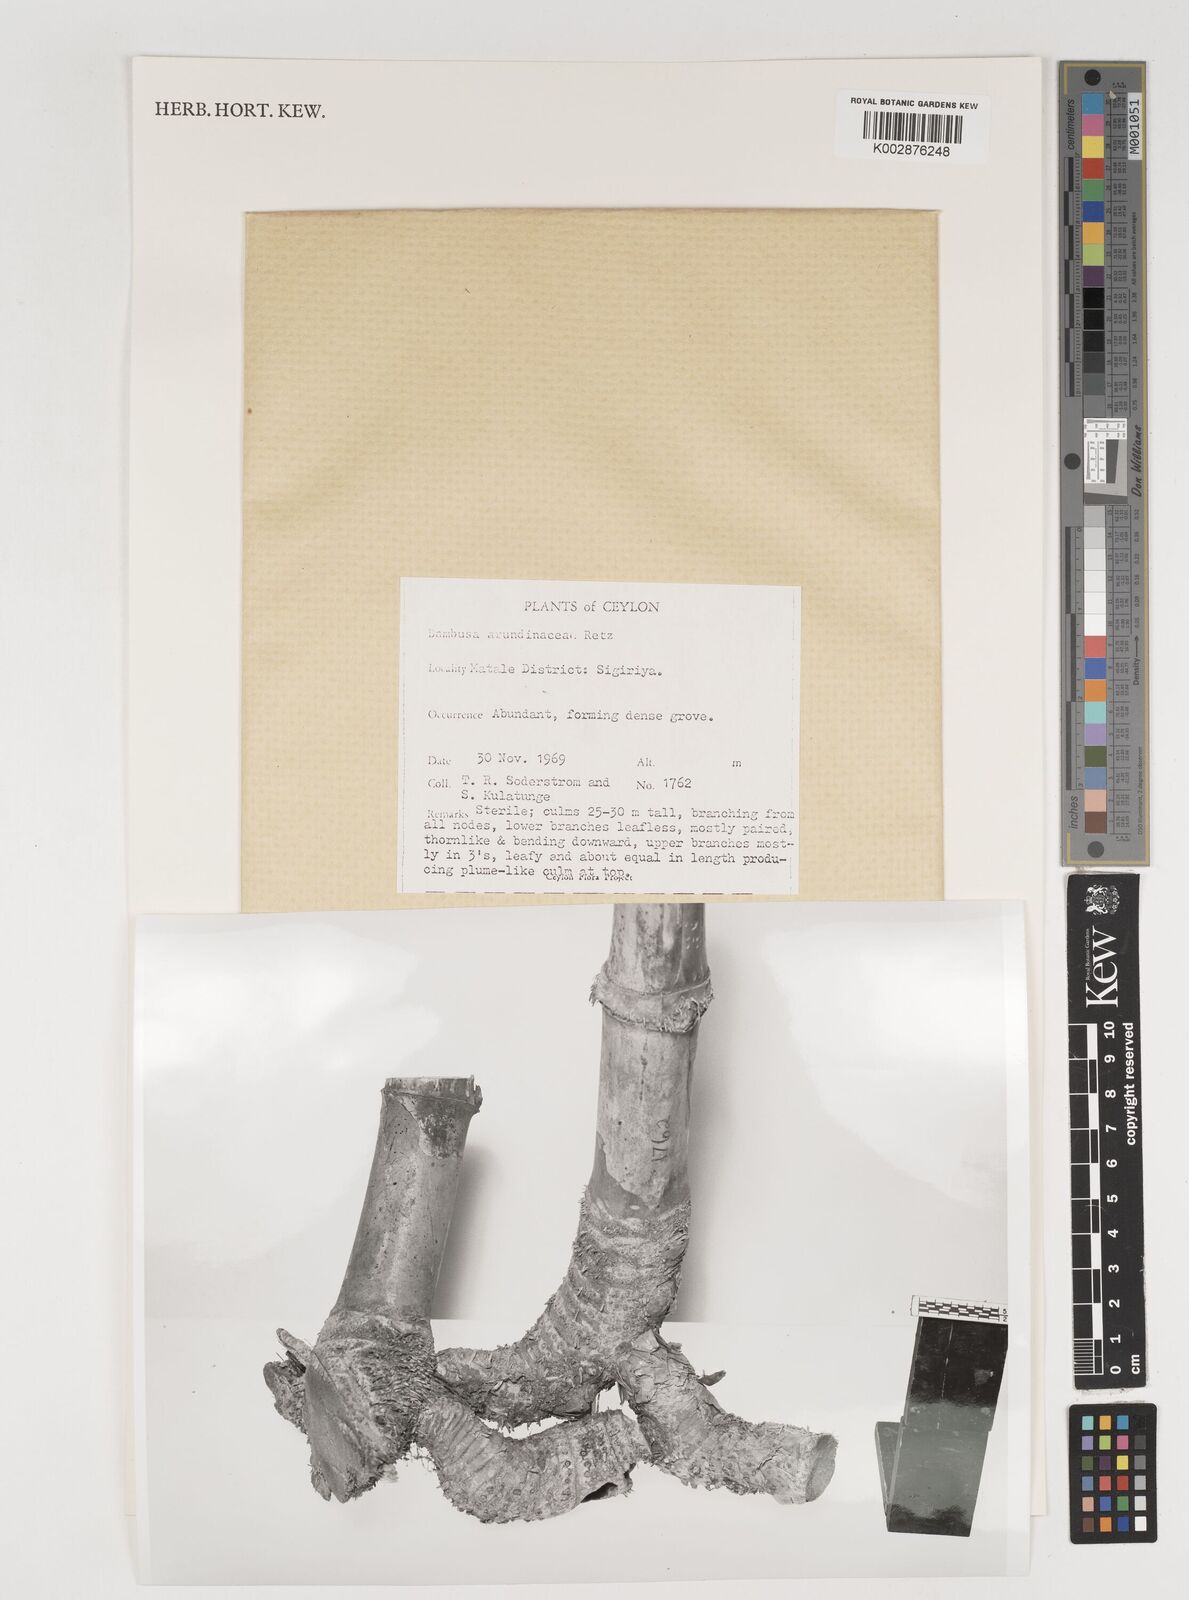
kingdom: Plantae
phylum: Tracheophyta
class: Liliopsida
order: Poales
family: Poaceae
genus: Bambusa
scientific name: Bambusa bambos
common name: Indian thorny bamboo
